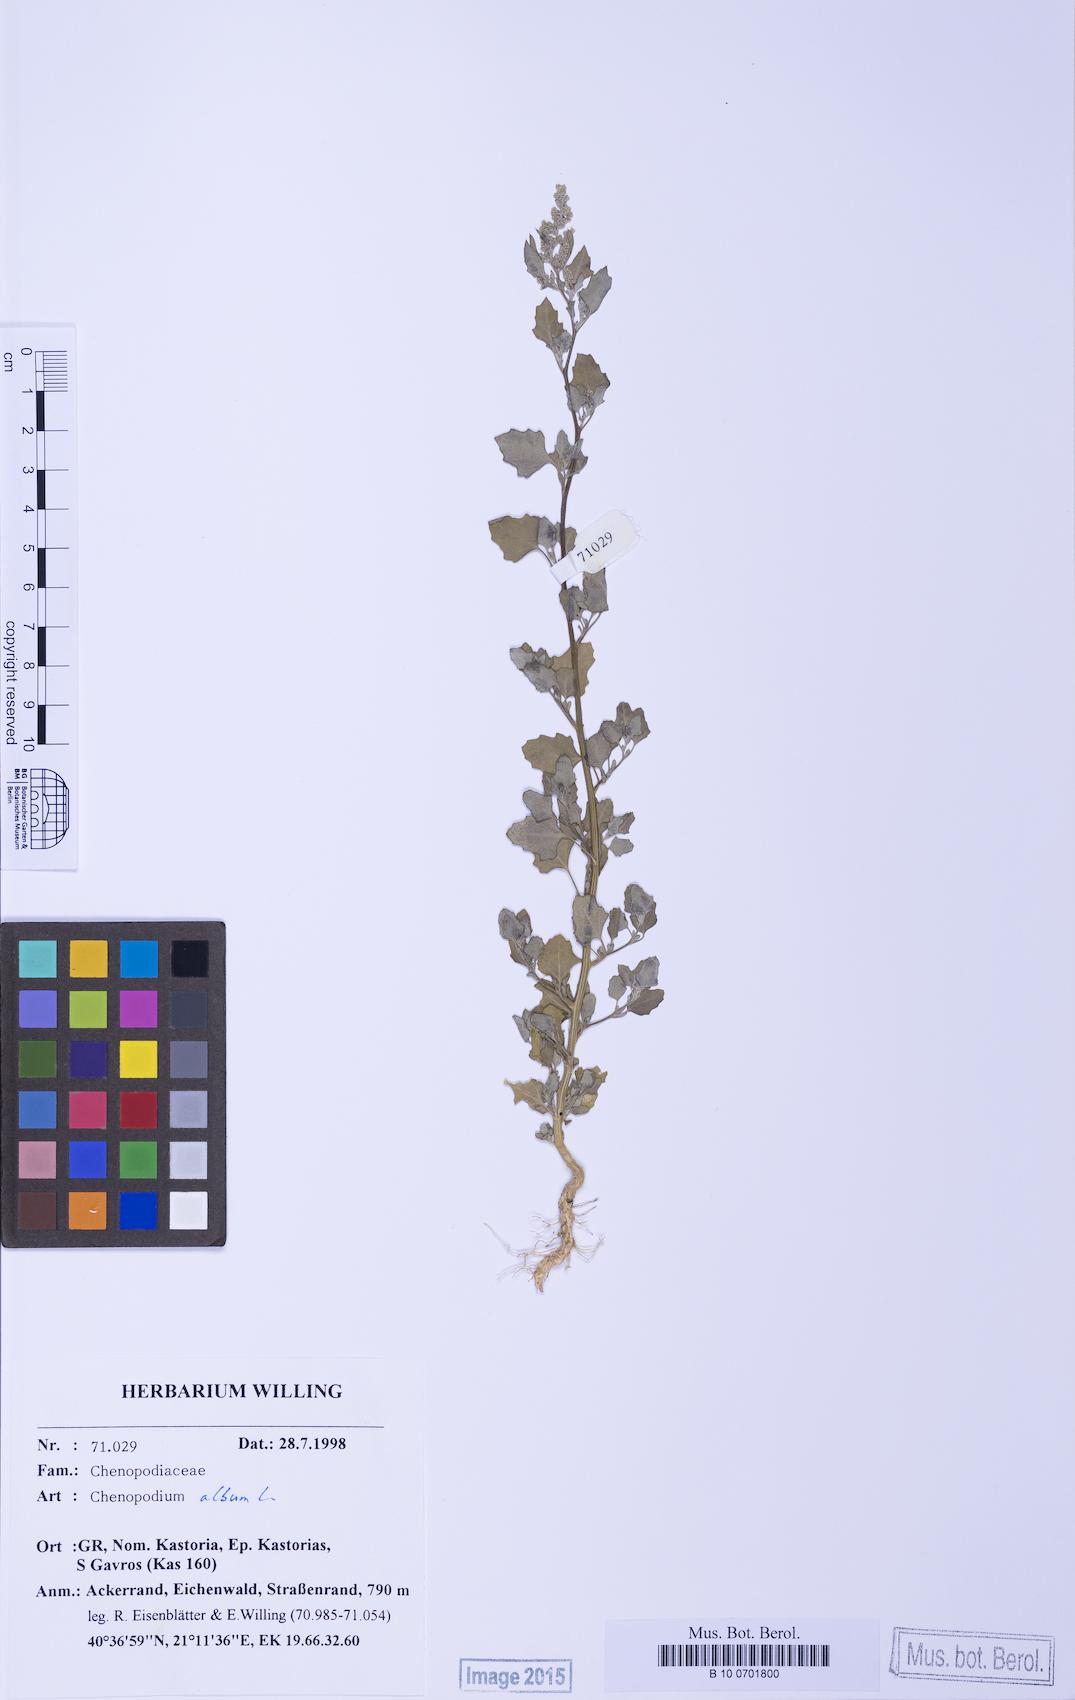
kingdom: Plantae
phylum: Tracheophyta
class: Magnoliopsida
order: Caryophyllales
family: Amaranthaceae
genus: Chenopodium
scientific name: Chenopodium opulifolium
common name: Grey goosefoot
